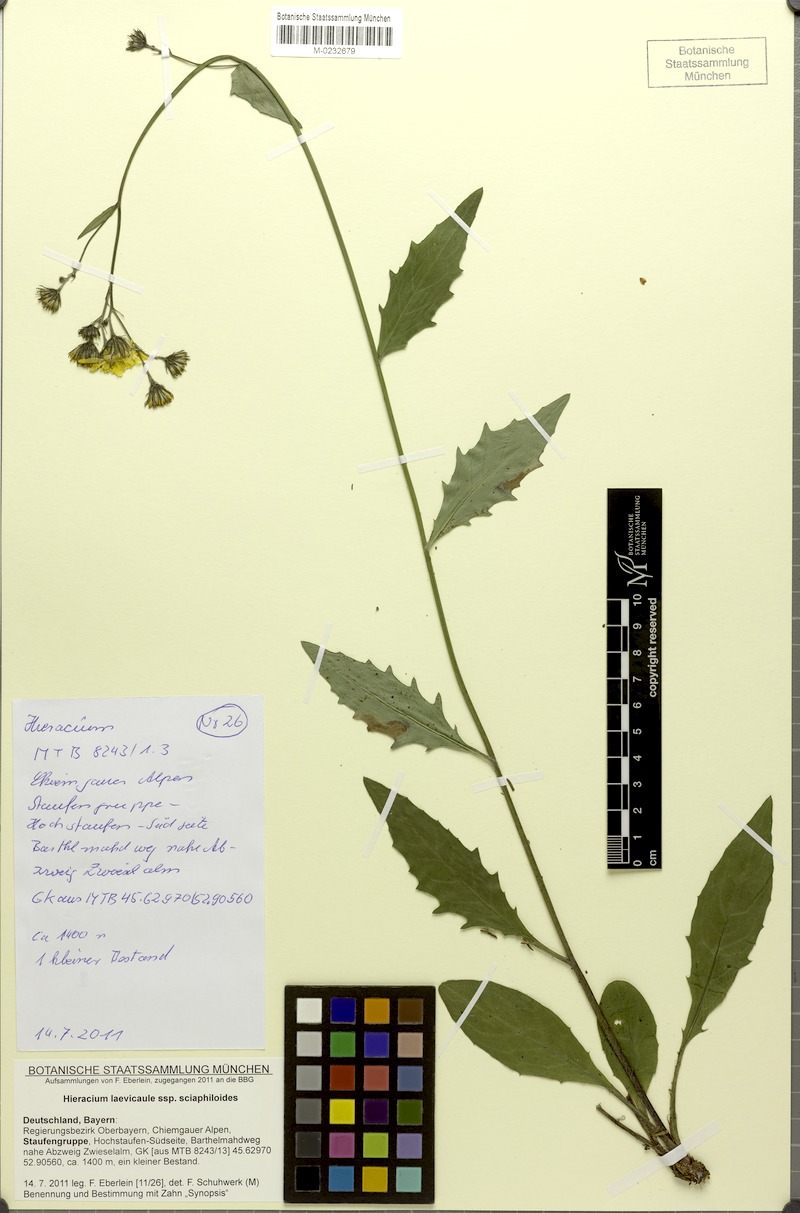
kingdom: Plantae
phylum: Tracheophyta
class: Magnoliopsida
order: Asterales
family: Asteraceae
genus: Hieracium
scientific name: Hieracium
